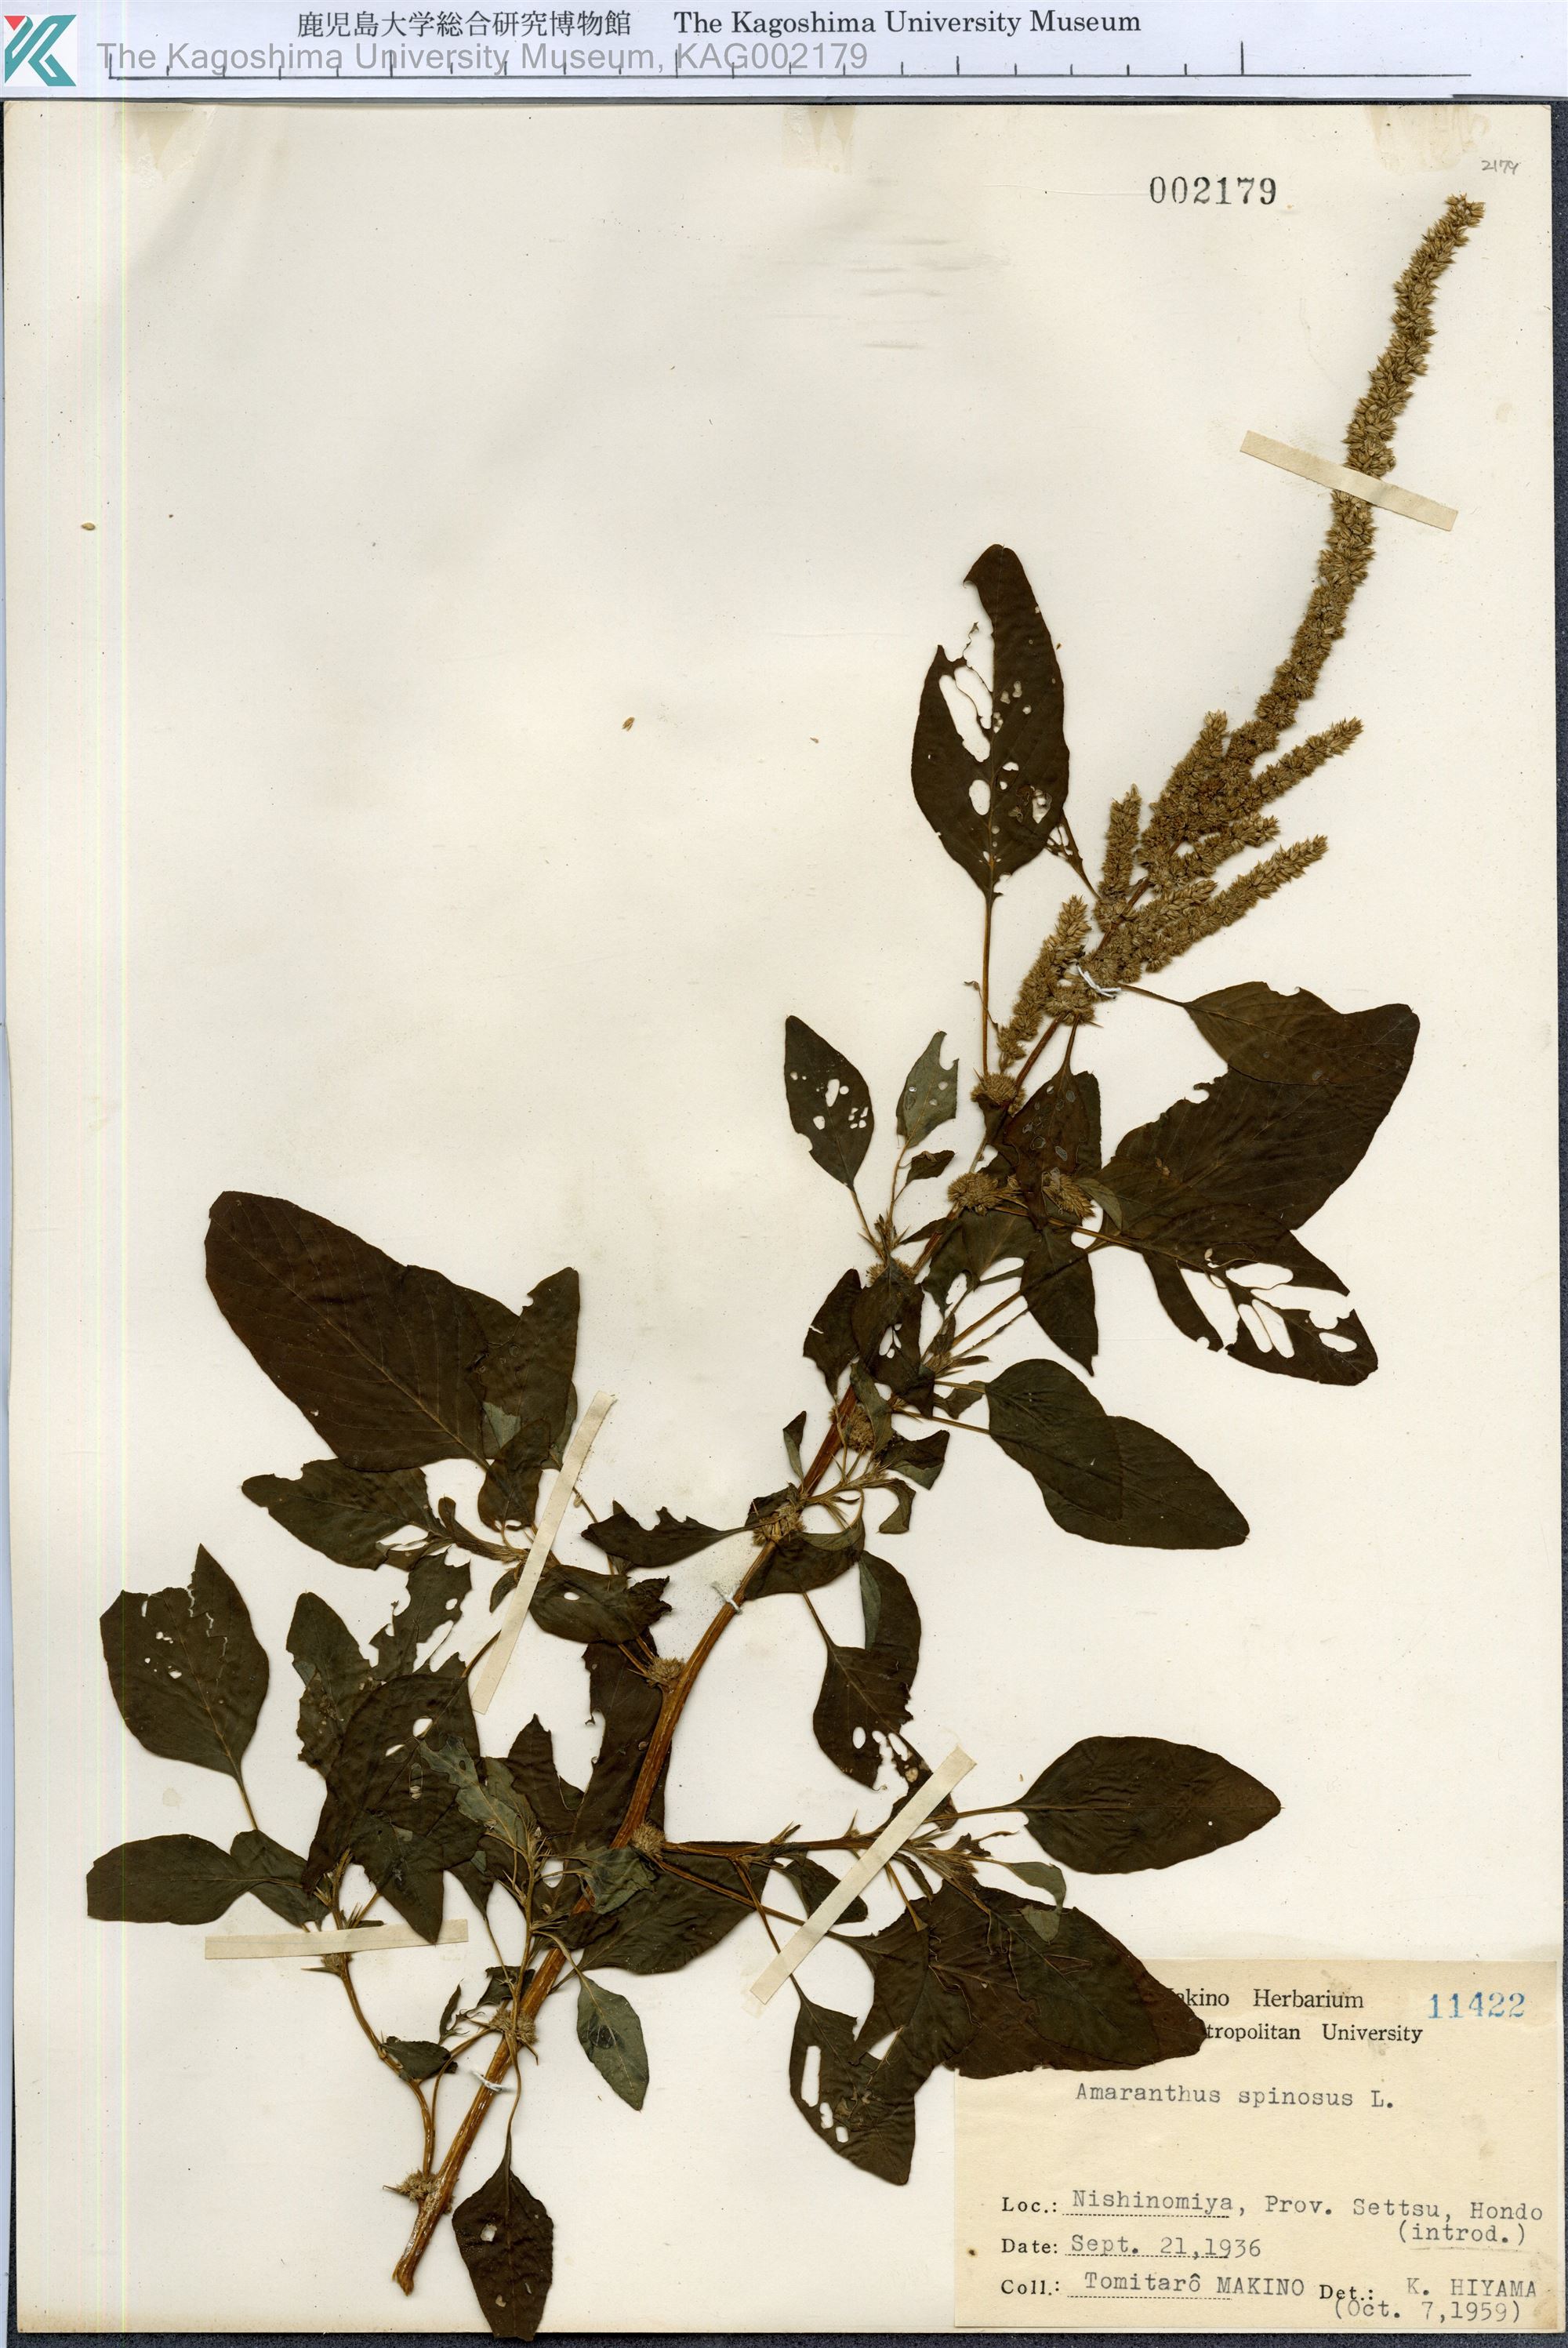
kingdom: Plantae
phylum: Tracheophyta
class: Magnoliopsida
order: Caryophyllales
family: Amaranthaceae
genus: Amaranthus
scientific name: Amaranthus spinosus
